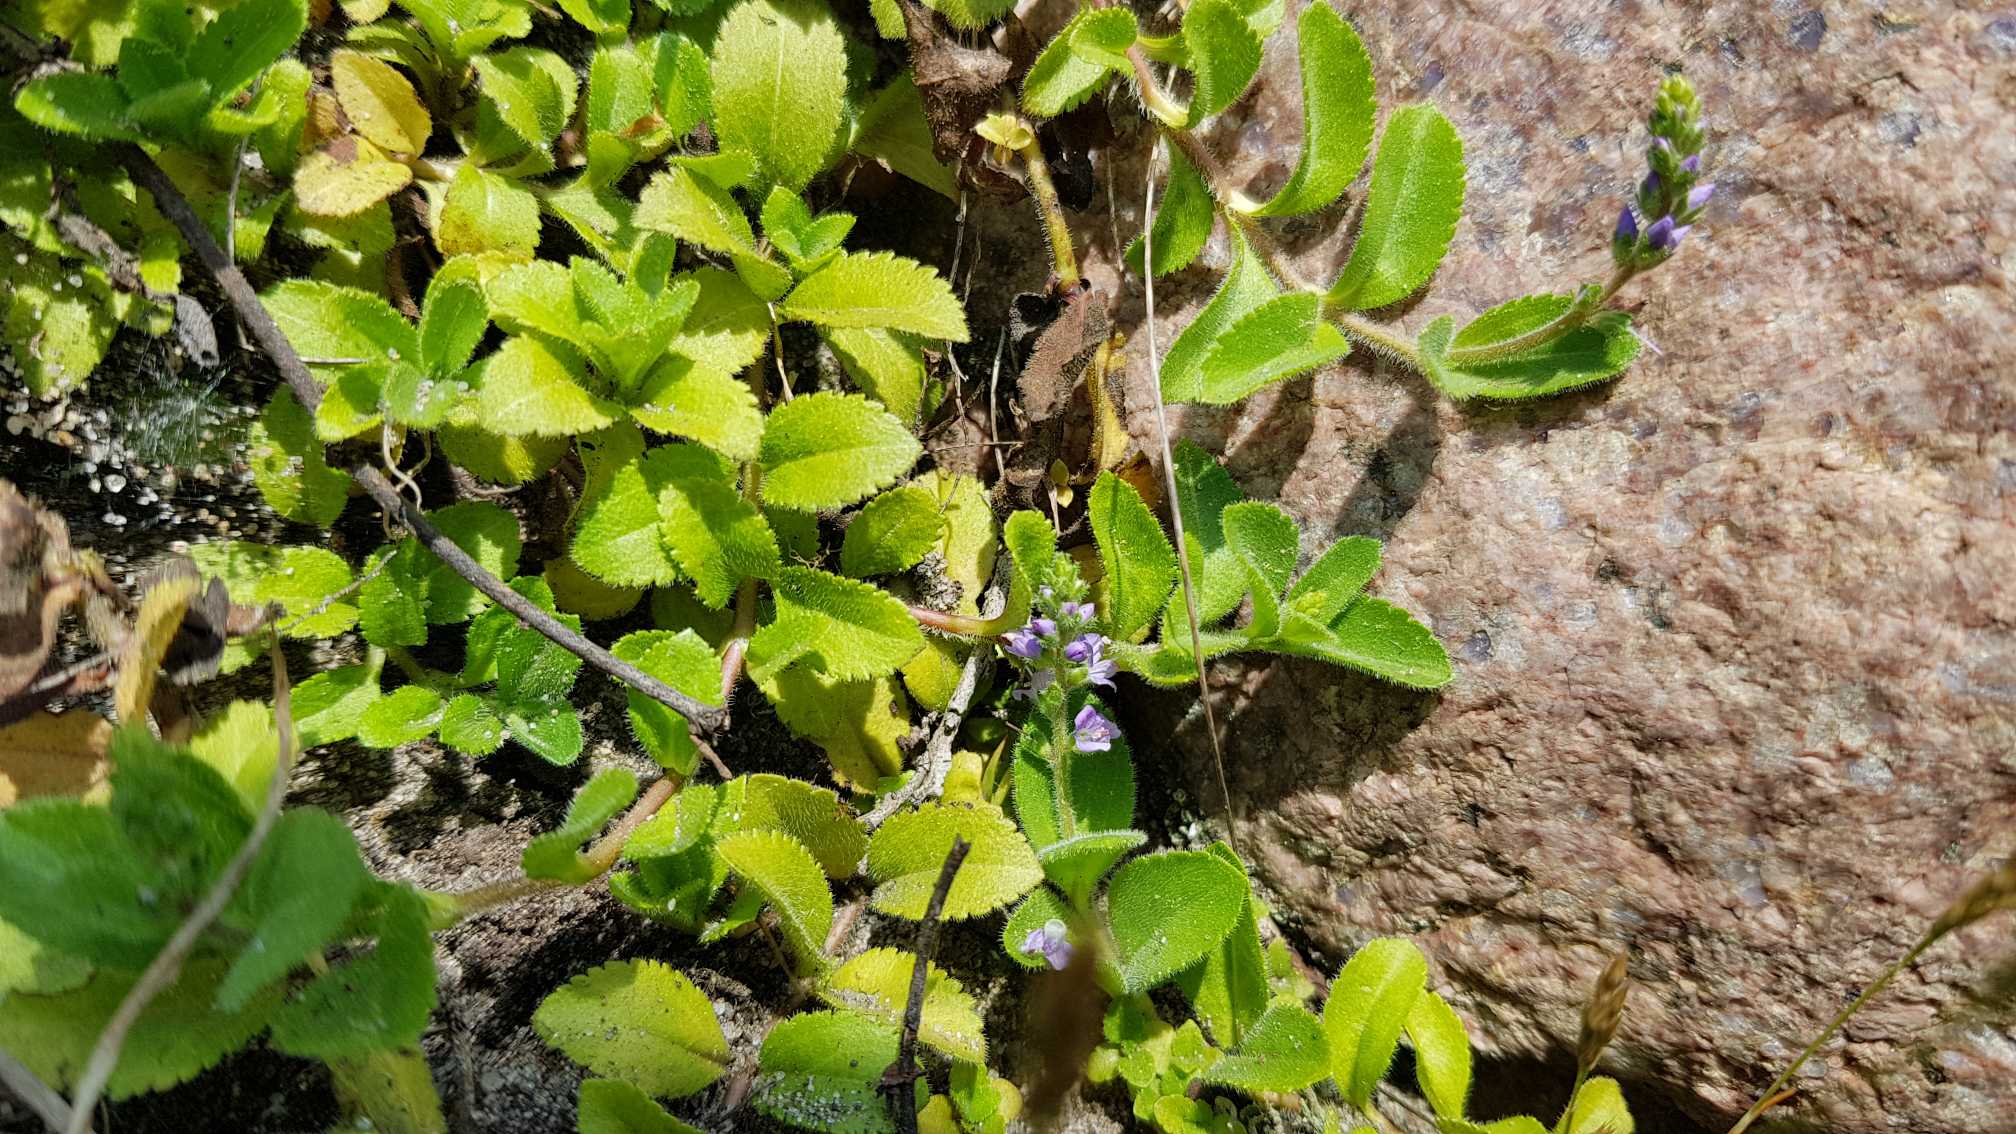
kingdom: Plantae
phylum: Tracheophyta
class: Magnoliopsida
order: Lamiales
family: Plantaginaceae
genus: Veronica
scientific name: Veronica officinalis
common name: Læge-ærenpris
